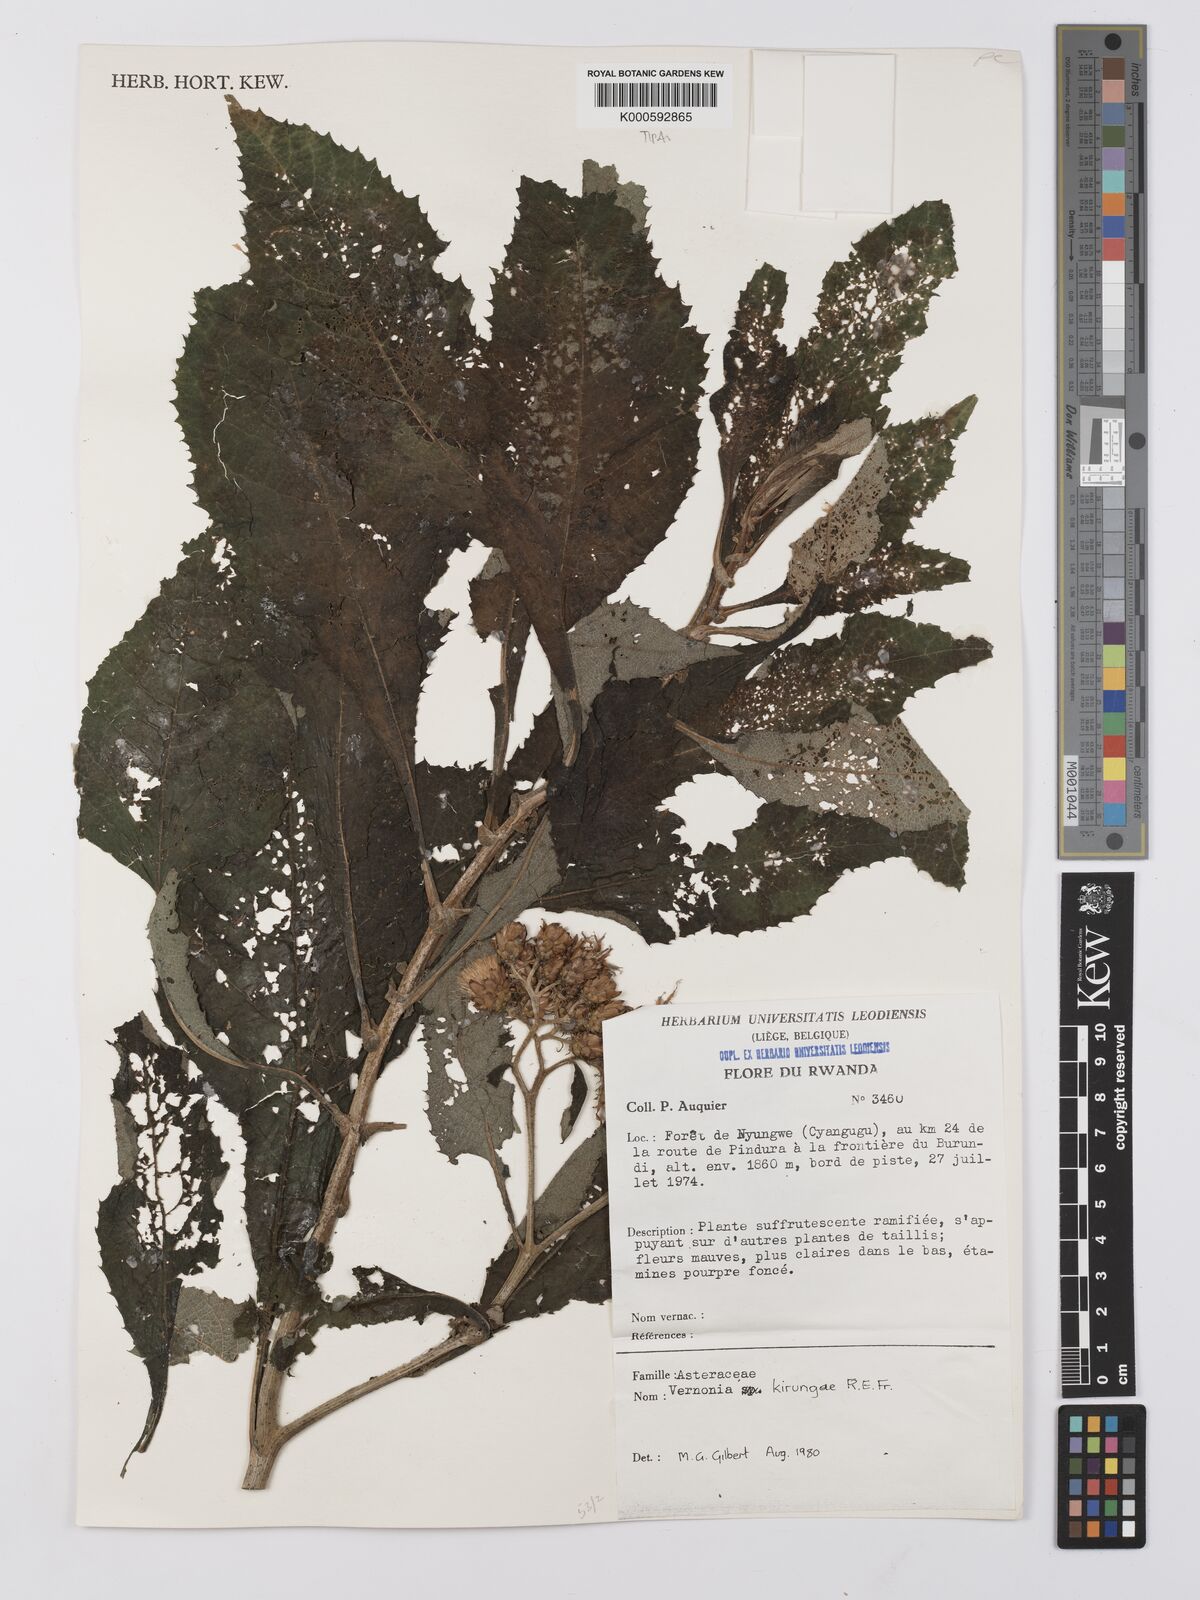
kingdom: Plantae
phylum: Tracheophyta
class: Magnoliopsida
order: Asterales
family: Asteraceae
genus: Baccharoides
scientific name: Baccharoides kirungae
